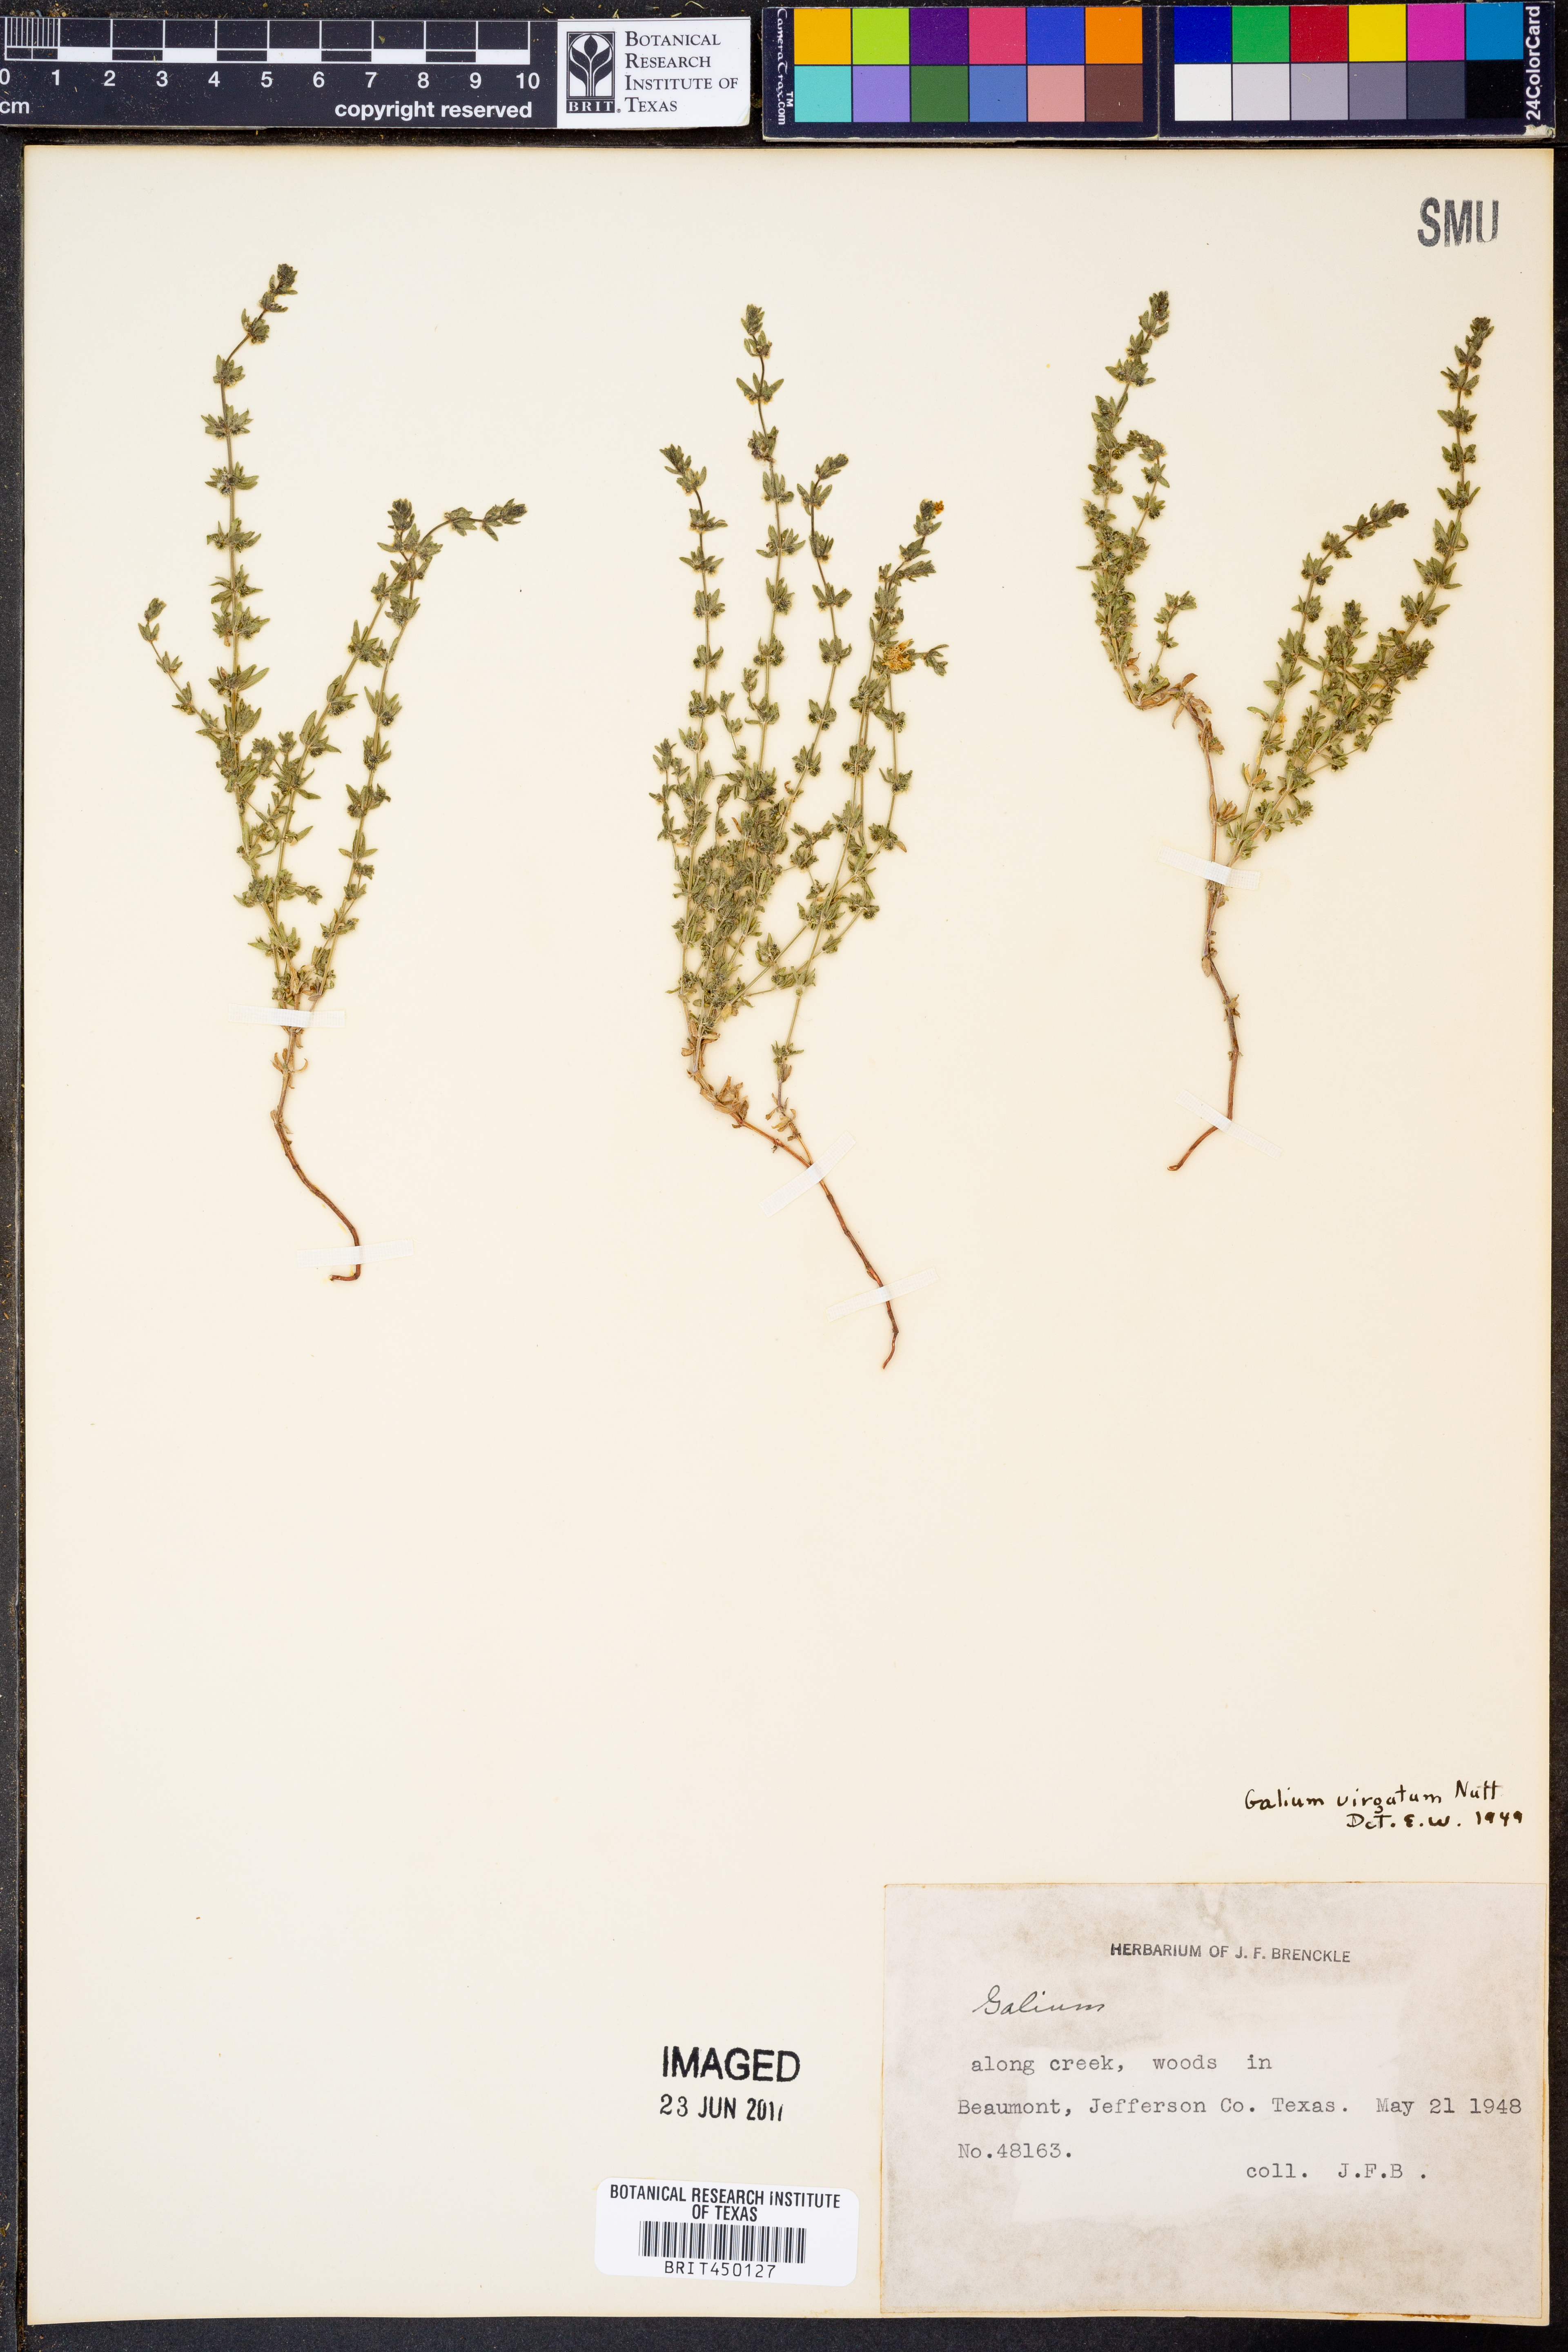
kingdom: Plantae
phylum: Tracheophyta
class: Magnoliopsida
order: Gentianales
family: Rubiaceae
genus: Galium
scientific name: Galium virgatum
